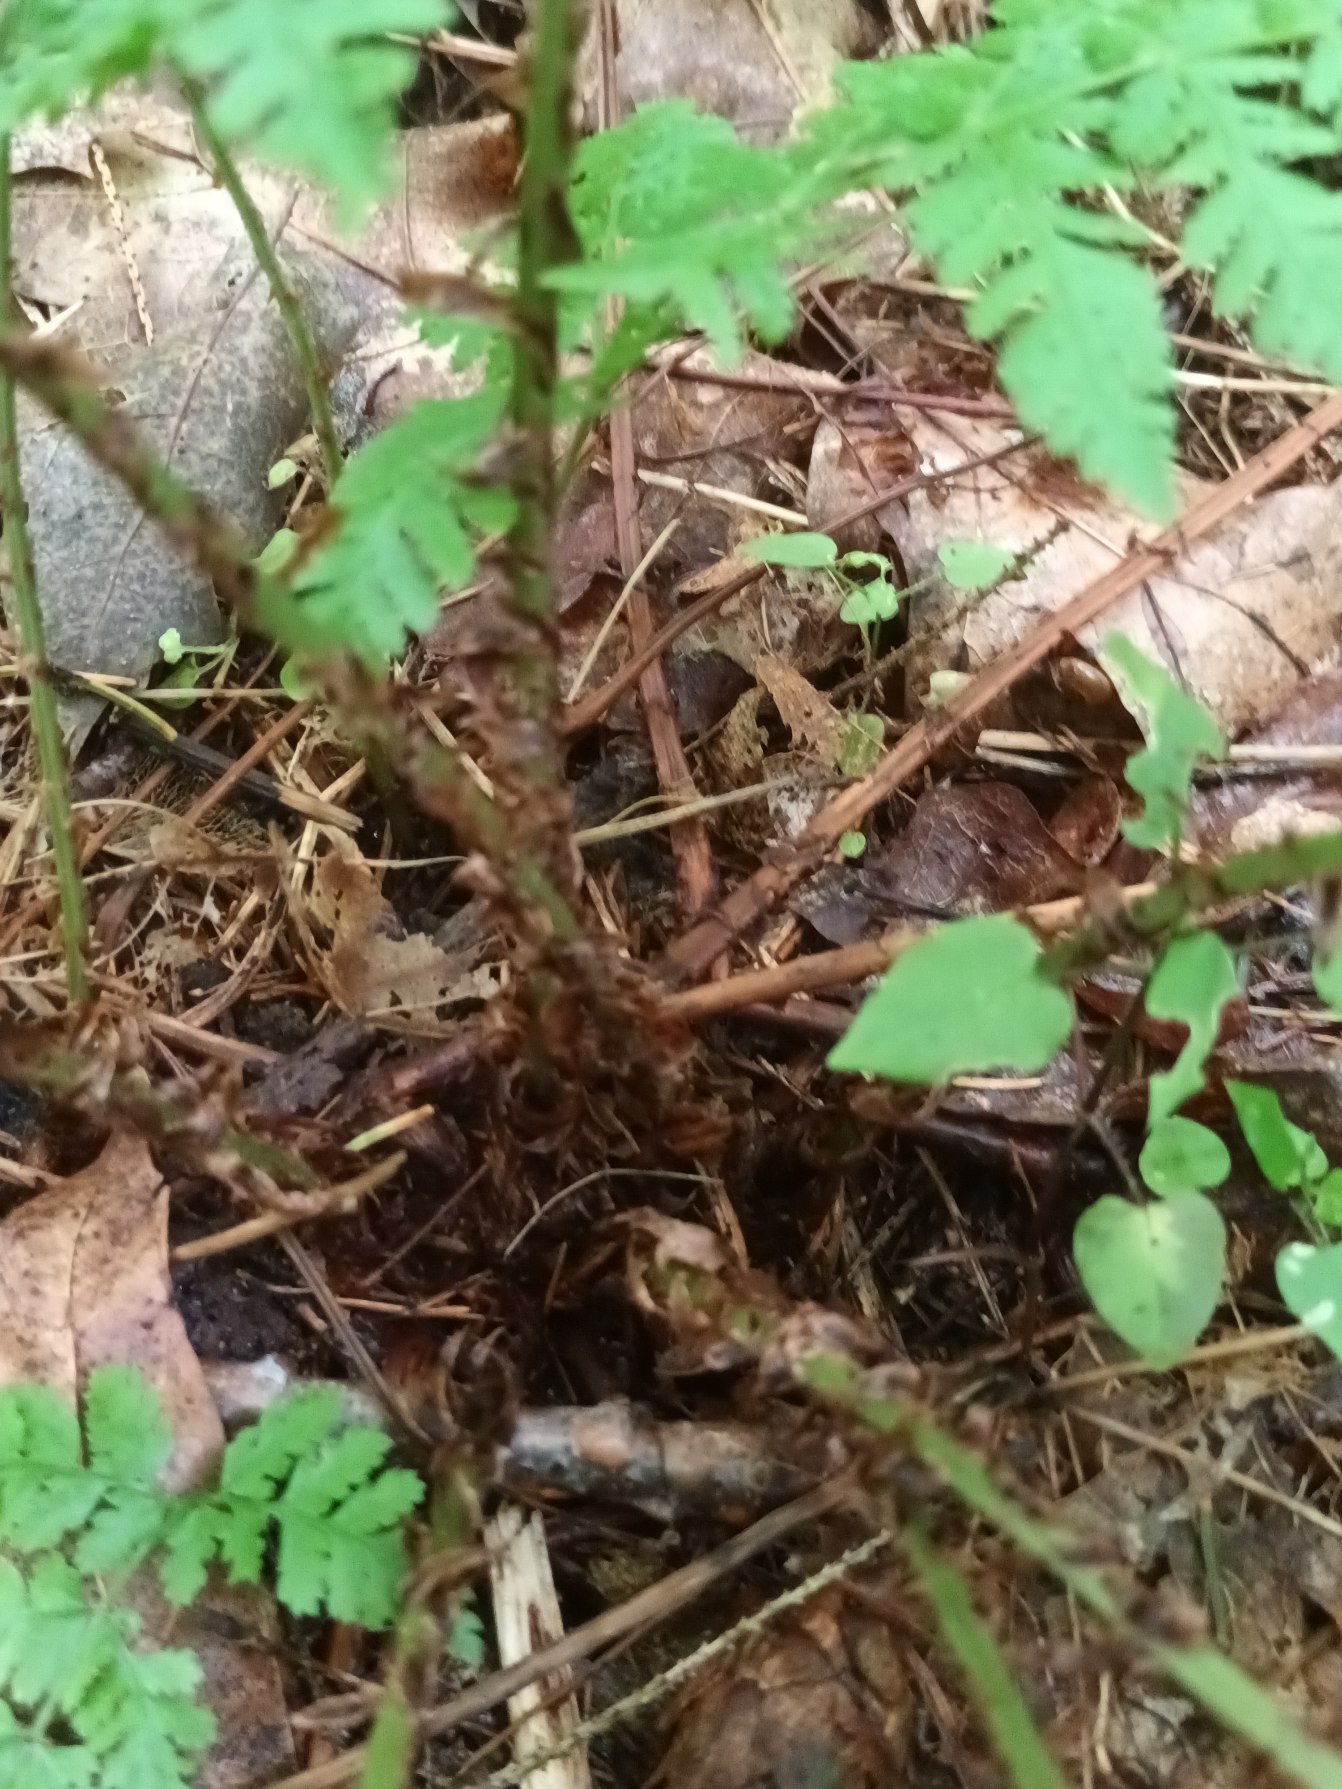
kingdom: Plantae
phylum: Tracheophyta
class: Polypodiopsida
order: Polypodiales
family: Dryopteridaceae
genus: Dryopteris
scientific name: Dryopteris dilatata
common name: Bredbladet mangeløv
